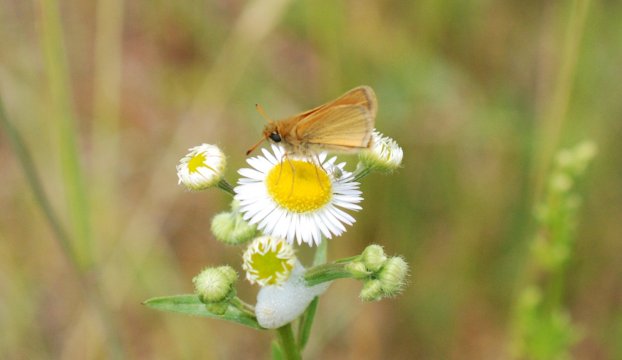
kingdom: Animalia
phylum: Arthropoda
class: Insecta
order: Lepidoptera
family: Hesperiidae
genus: Thymelicus
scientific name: Thymelicus lineola
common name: European Skipper
